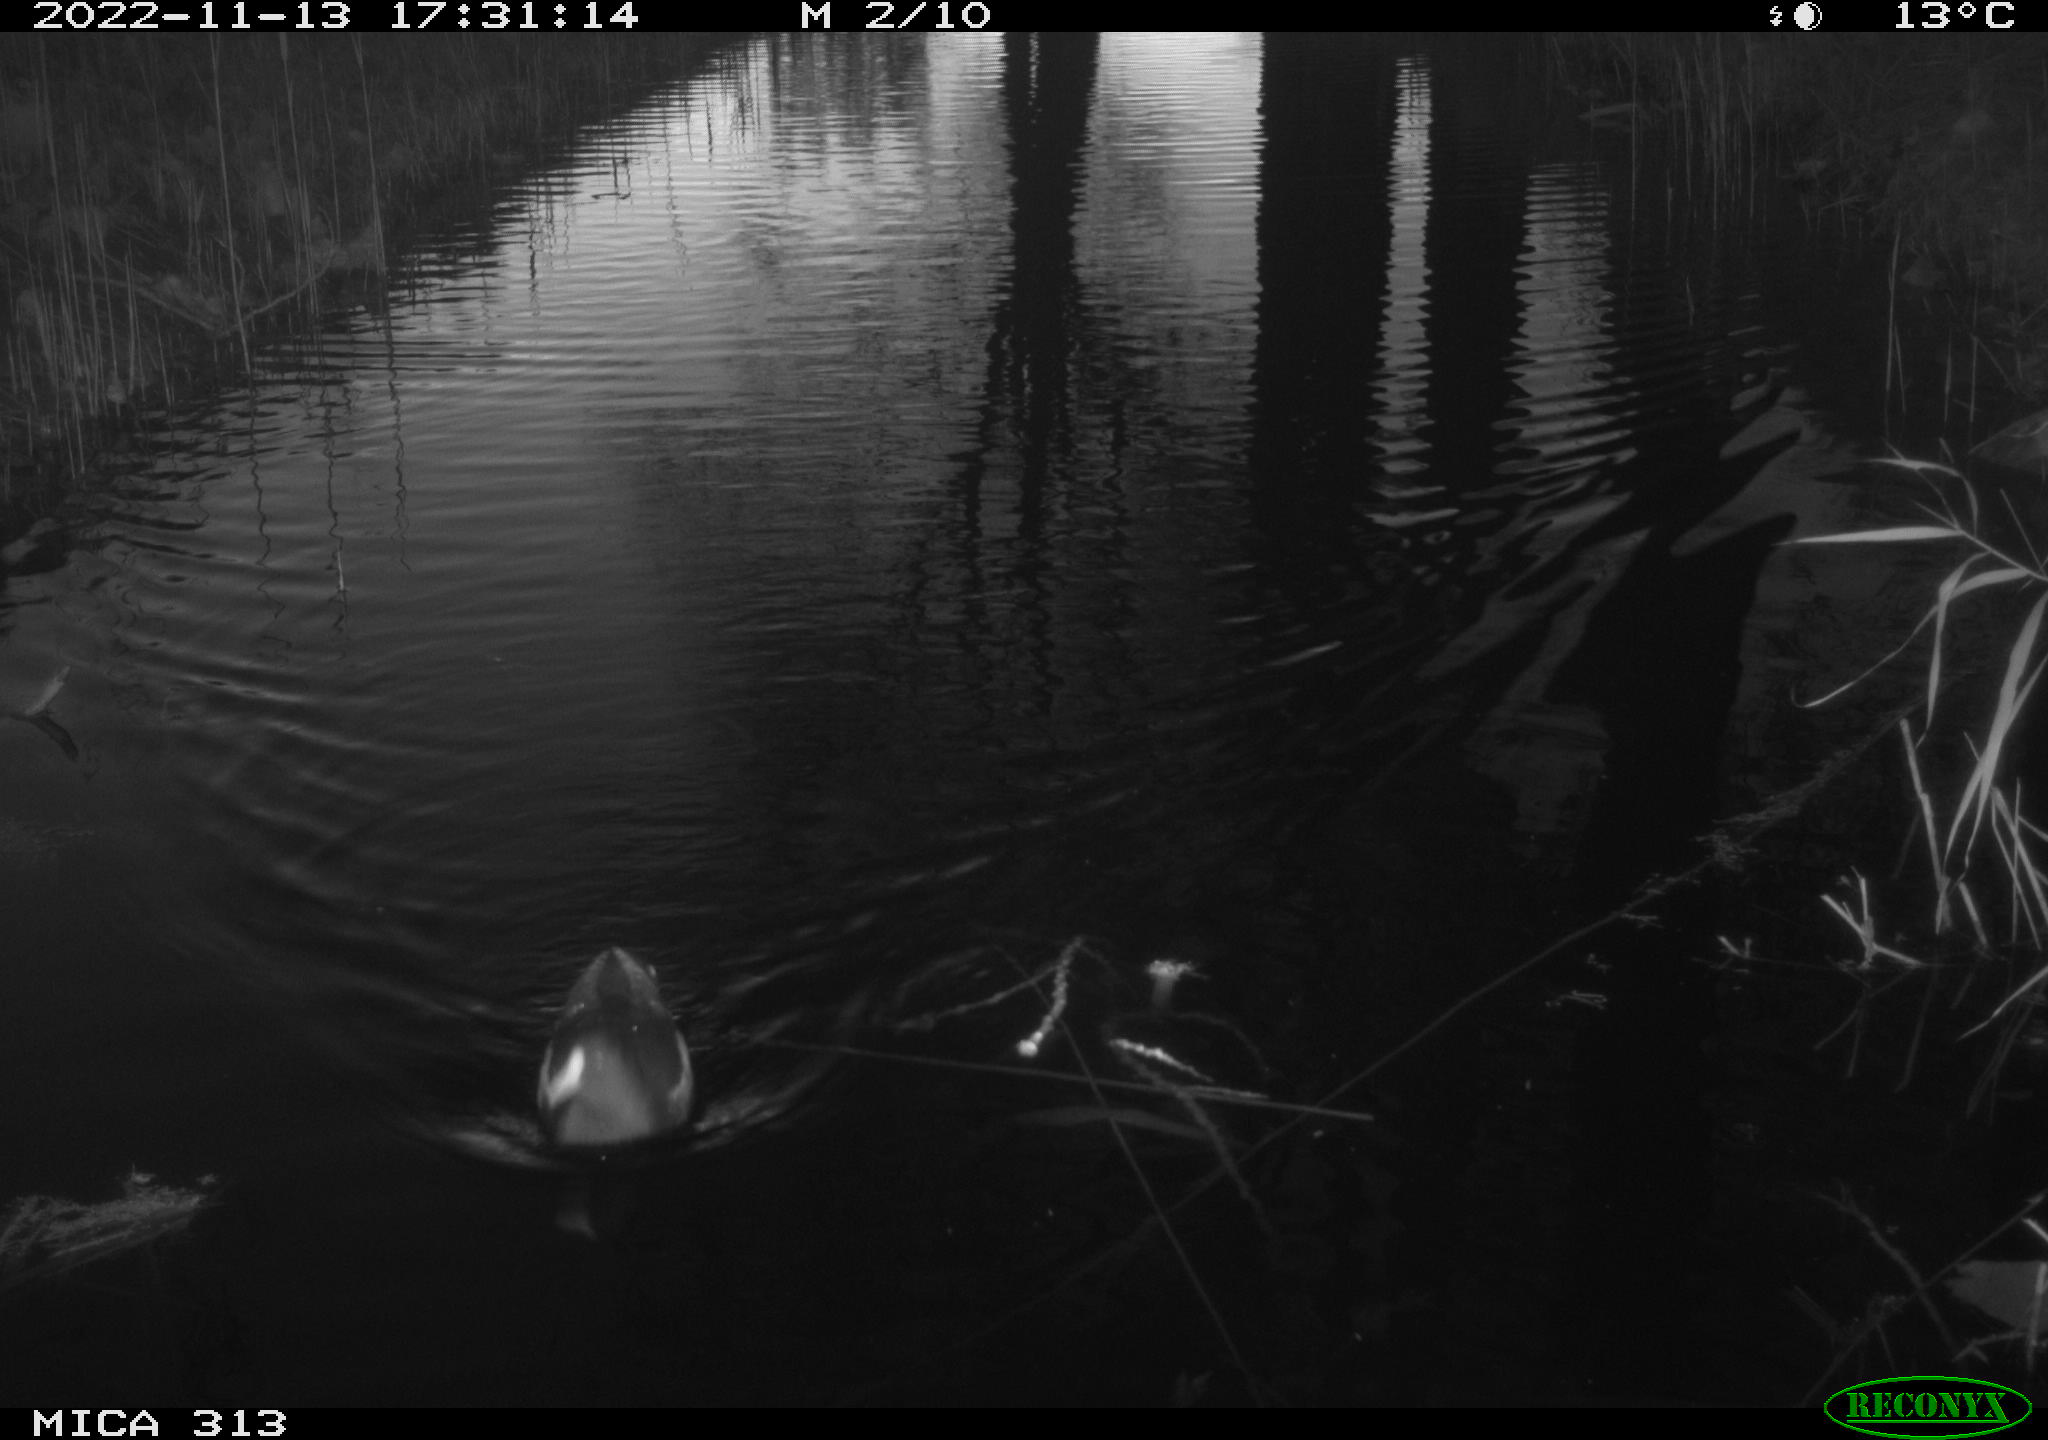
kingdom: Animalia
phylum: Chordata
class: Aves
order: Anseriformes
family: Anatidae
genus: Anas
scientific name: Anas
